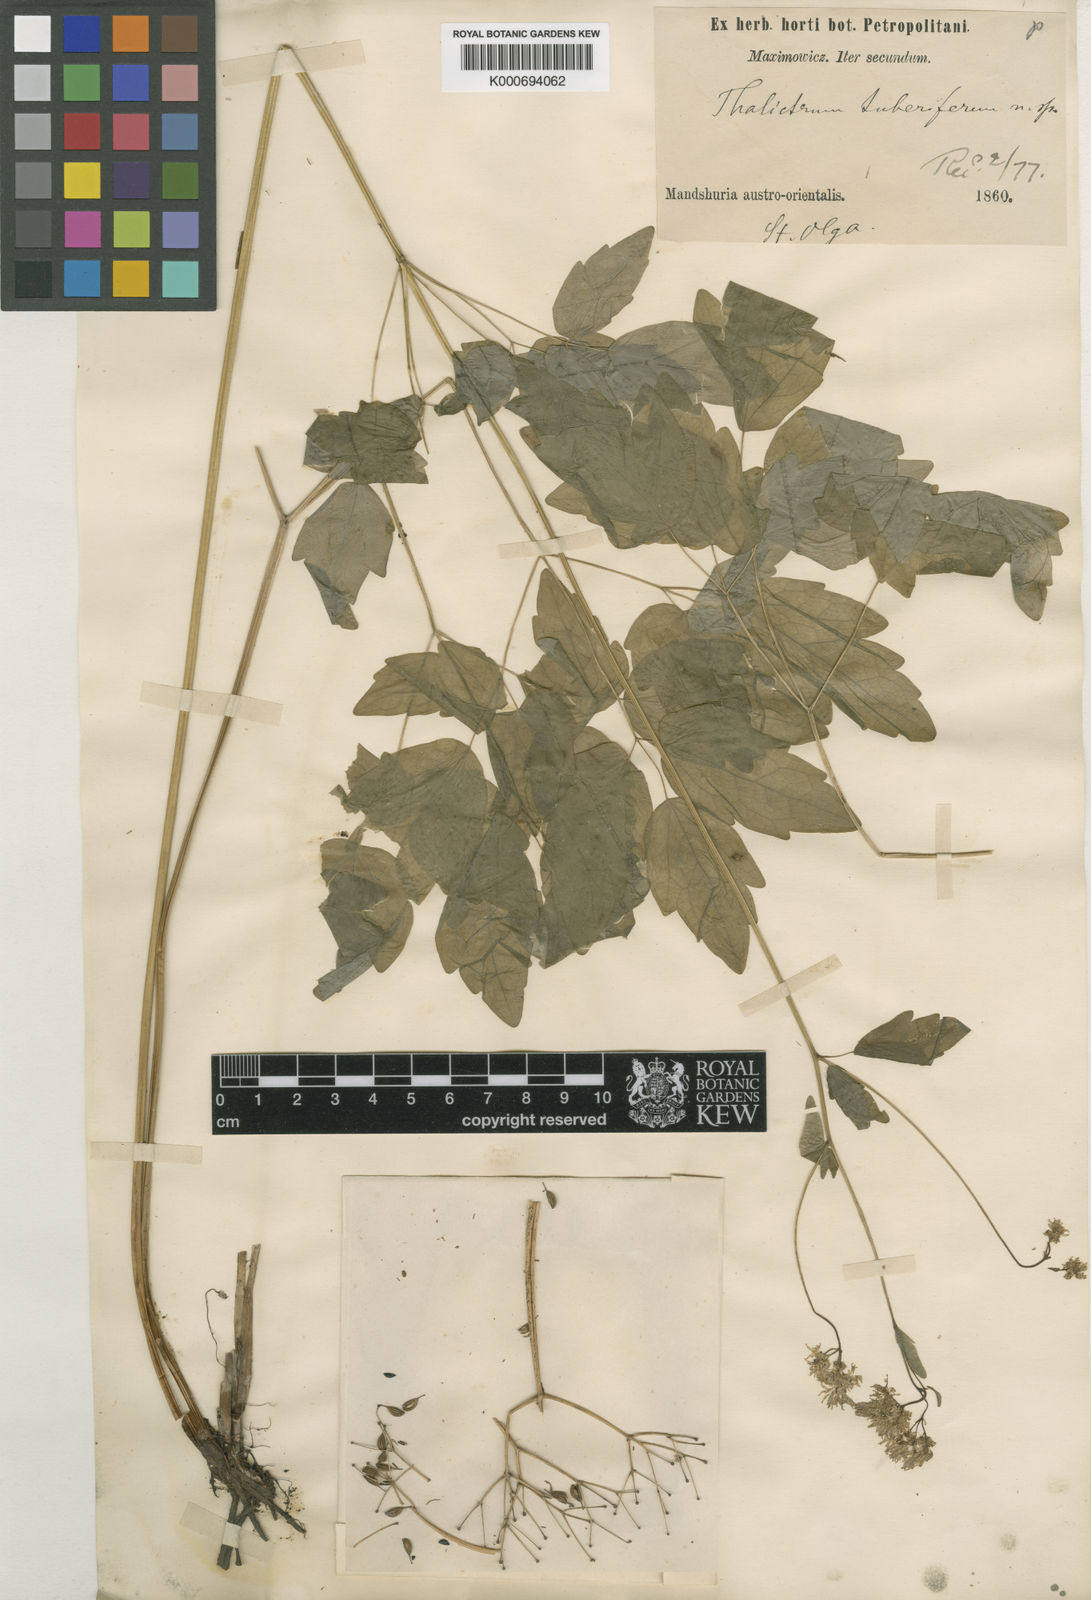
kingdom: Plantae
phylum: Tracheophyta
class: Magnoliopsida
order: Ranunculales
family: Ranunculaceae
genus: Thalictrum
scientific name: Thalictrum tuberiferum
